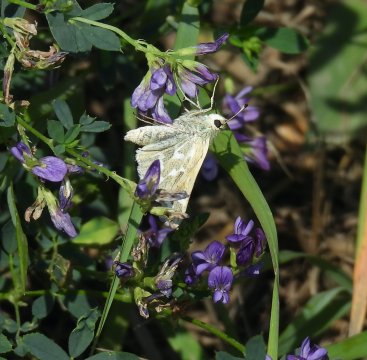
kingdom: Animalia
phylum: Arthropoda
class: Insecta
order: Lepidoptera
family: Hesperiidae
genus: Hesperia
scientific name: Hesperia comma
